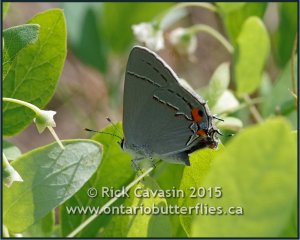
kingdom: Animalia
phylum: Arthropoda
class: Insecta
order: Lepidoptera
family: Lycaenidae
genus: Strymon
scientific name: Strymon melinus
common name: Gray Hairstreak
